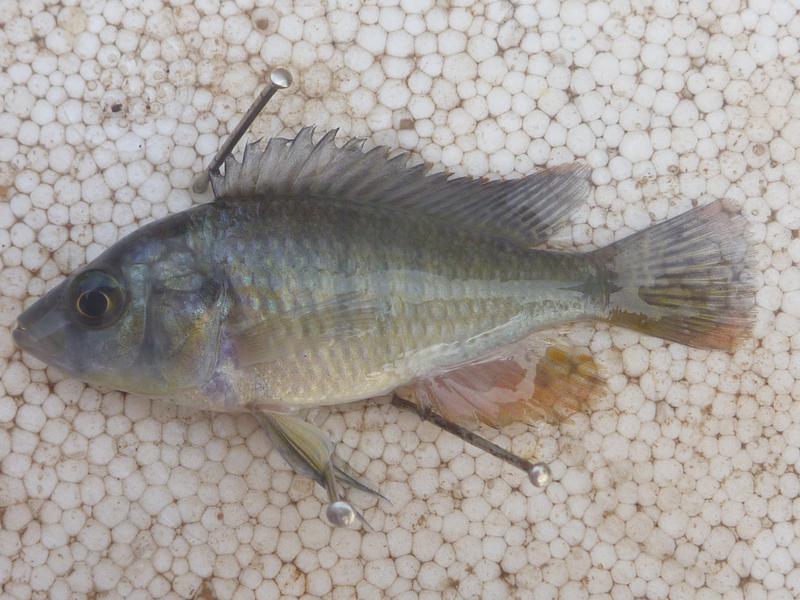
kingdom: Animalia
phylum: Chordata
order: Perciformes
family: Cichlidae
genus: Oreochromis
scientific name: Oreochromis leucostictus
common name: Blue spotted tilapia
